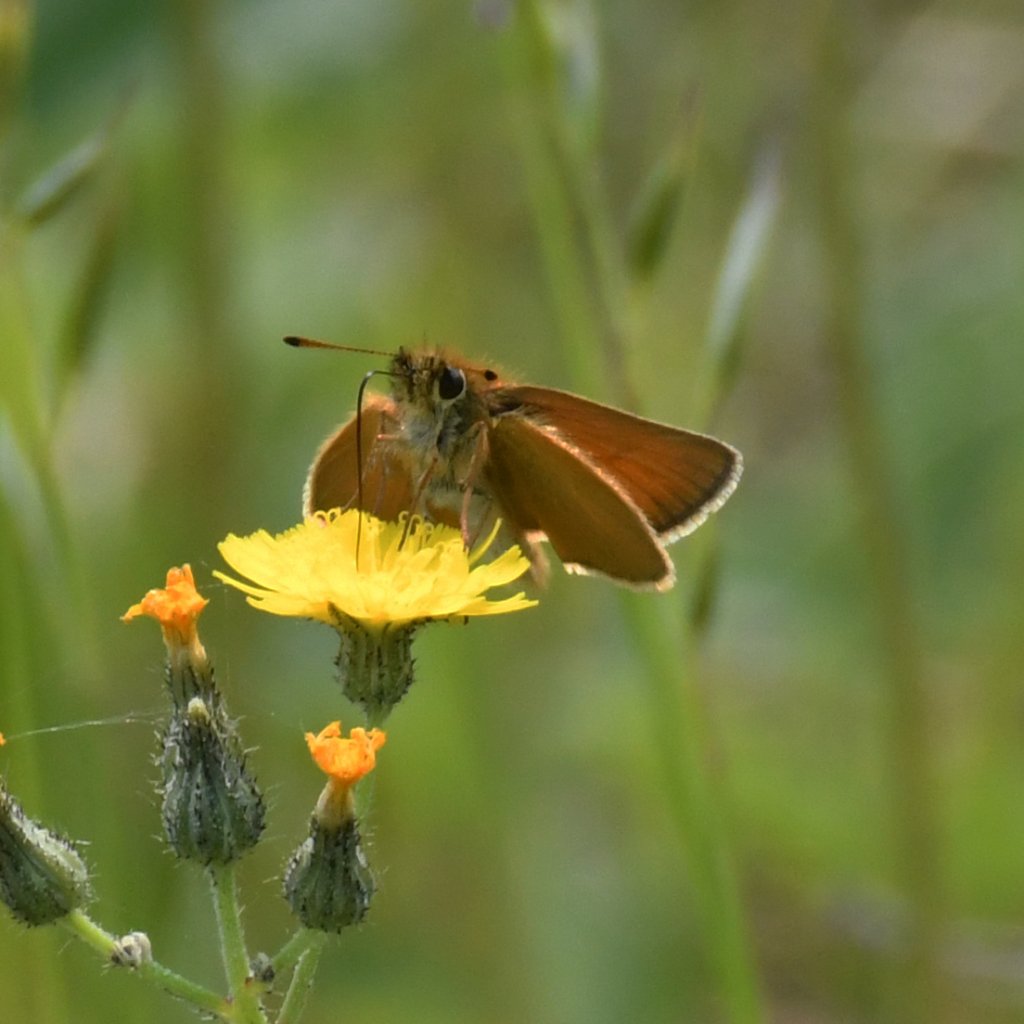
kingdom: Animalia
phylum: Arthropoda
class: Insecta
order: Lepidoptera
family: Hesperiidae
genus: Thymelicus
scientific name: Thymelicus lineola
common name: European Skipper
